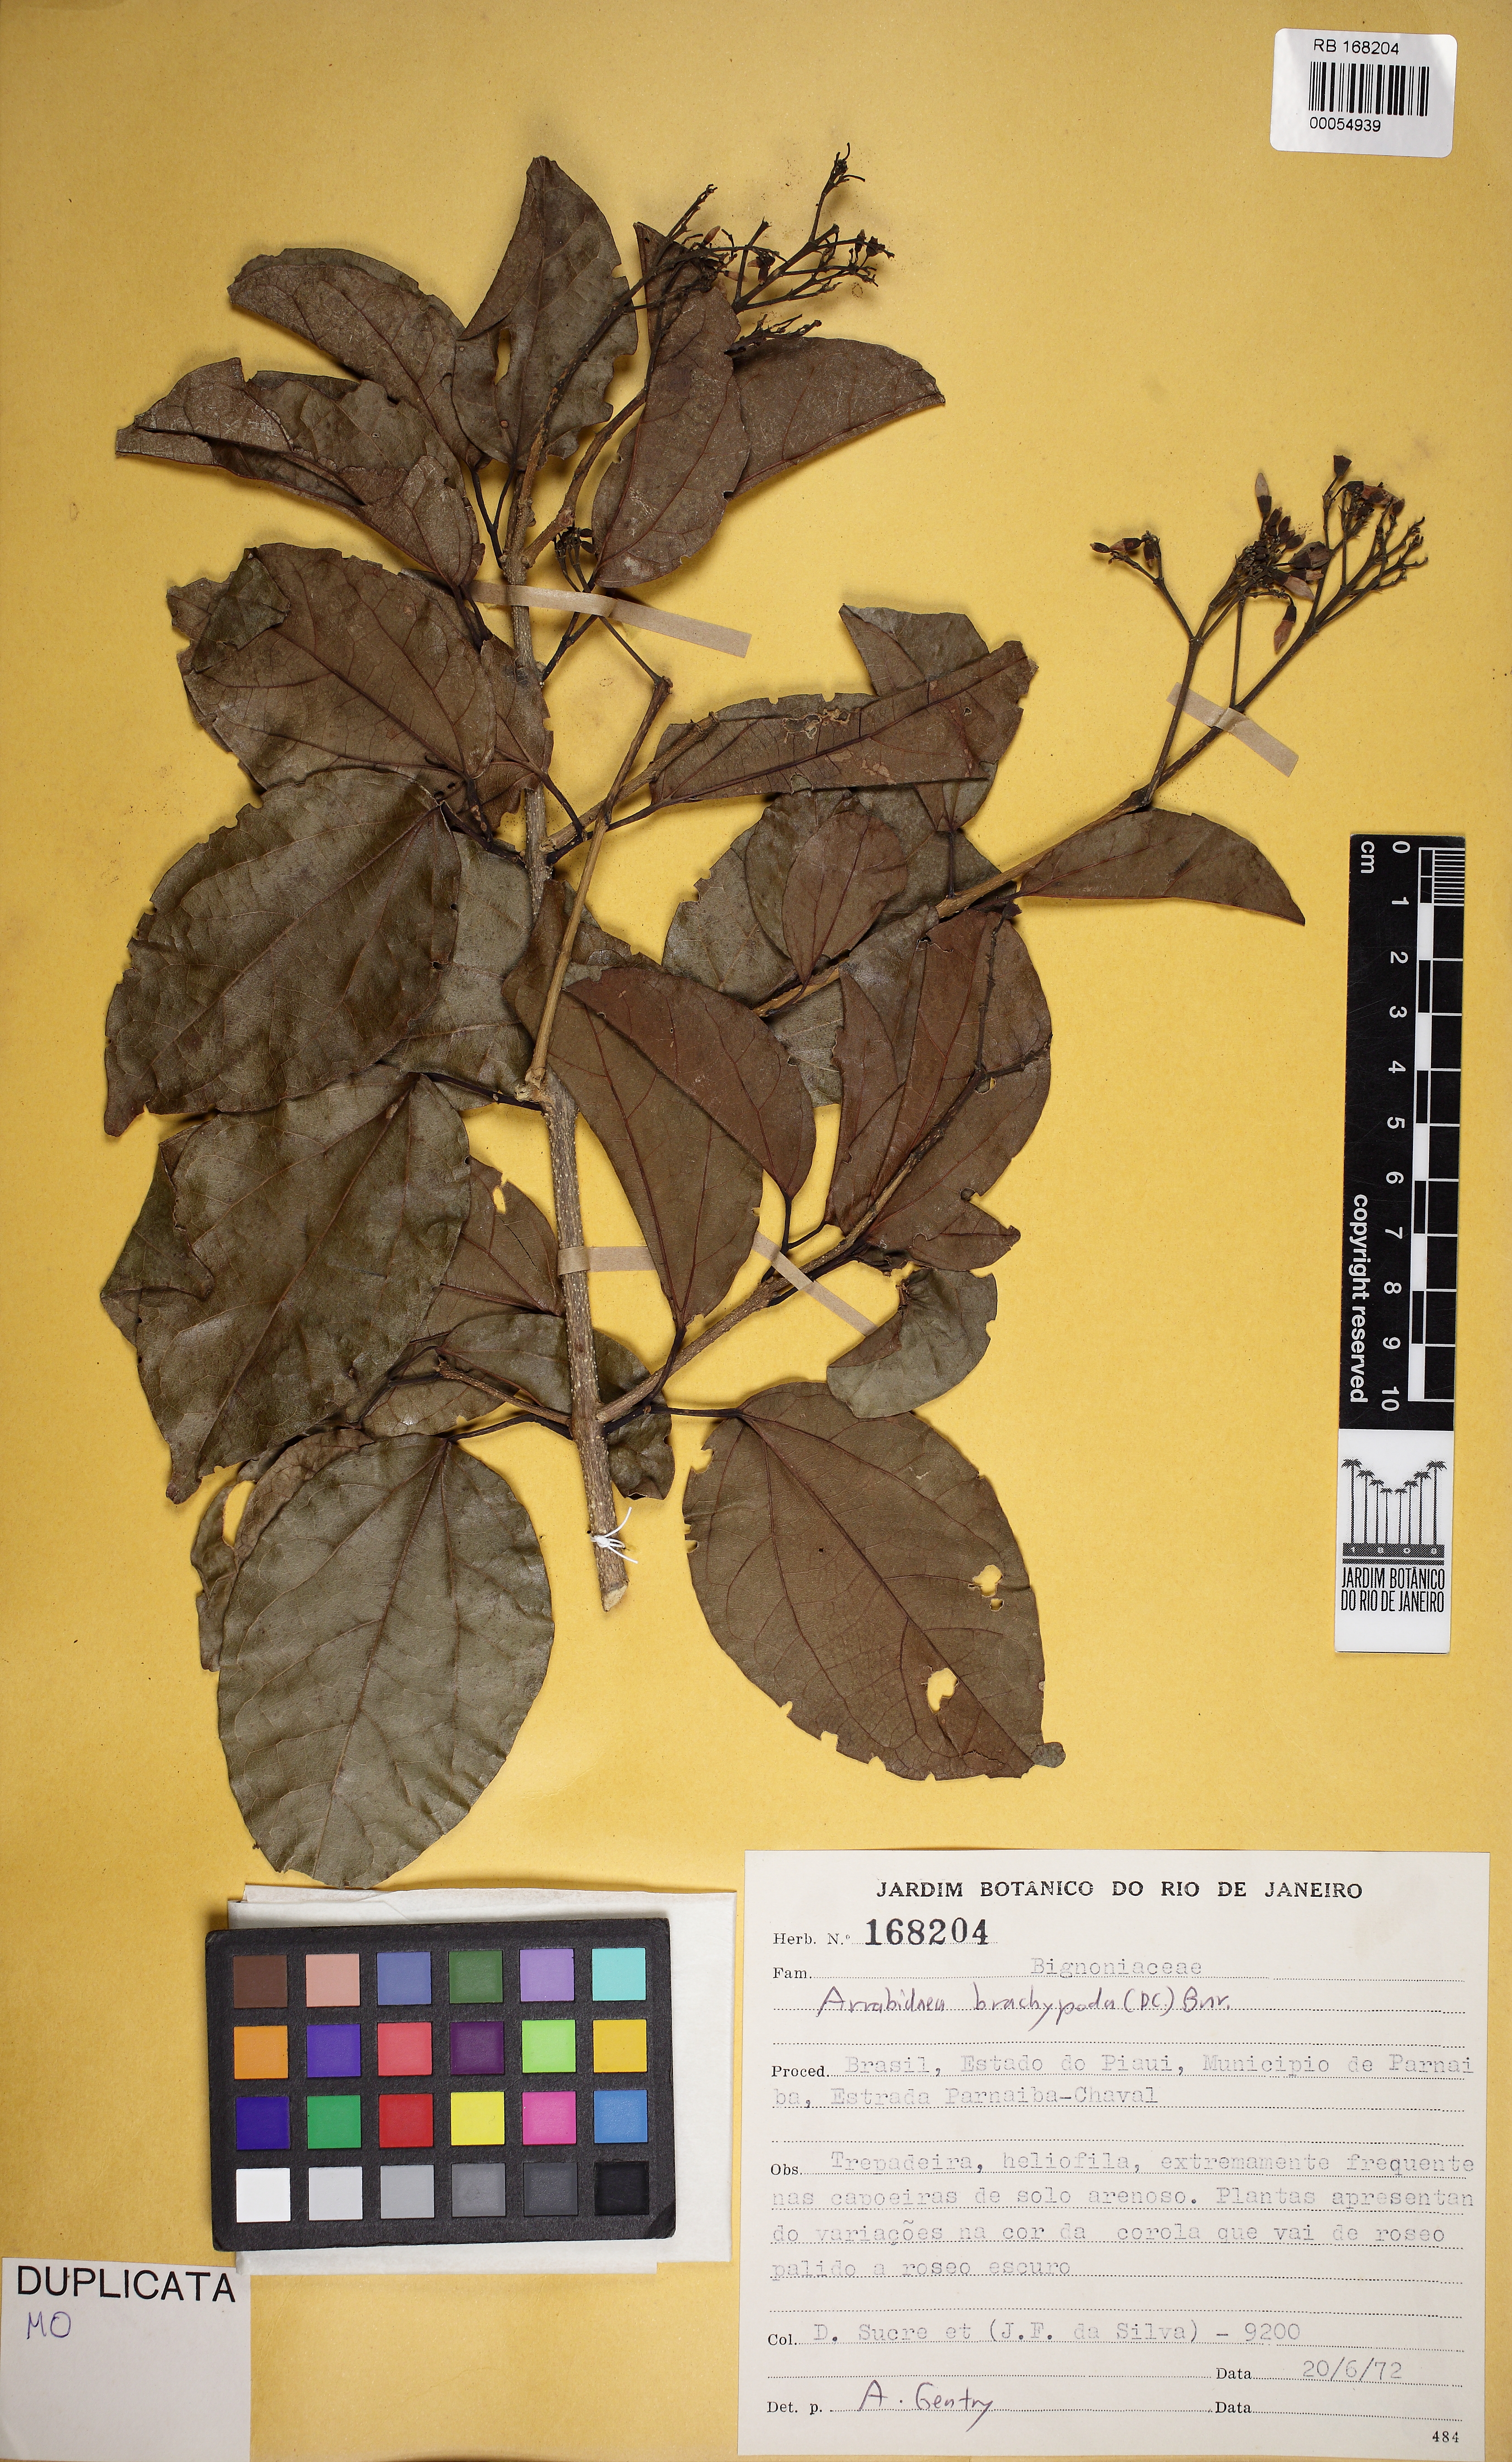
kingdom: Plantae
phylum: Tracheophyta
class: Magnoliopsida
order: Lamiales
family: Bignoniaceae
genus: Fridericia
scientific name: Fridericia platyphylla
